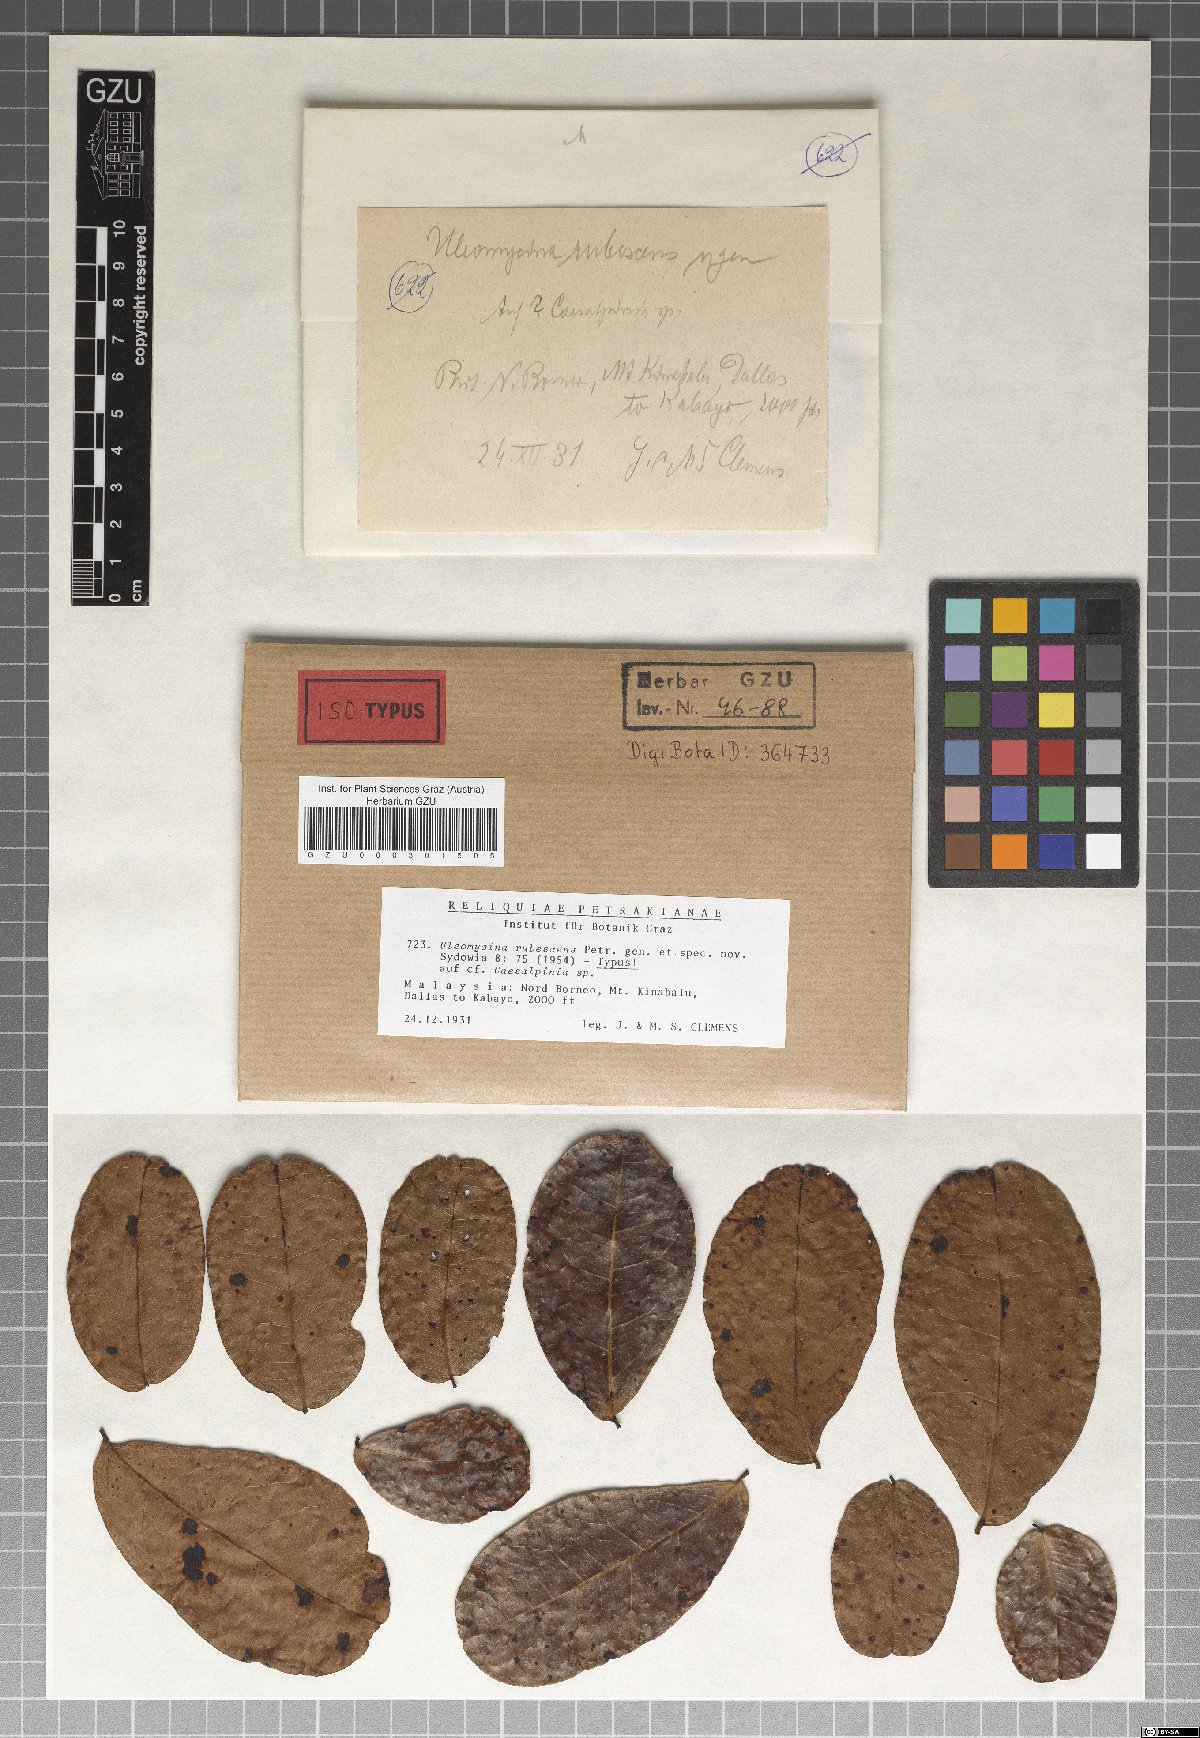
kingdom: Fungi
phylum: Ascomycota
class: Dothideomycetes
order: Myriangiales
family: Elsinoaceae
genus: Uleomycina
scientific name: Uleomycina rubescens
